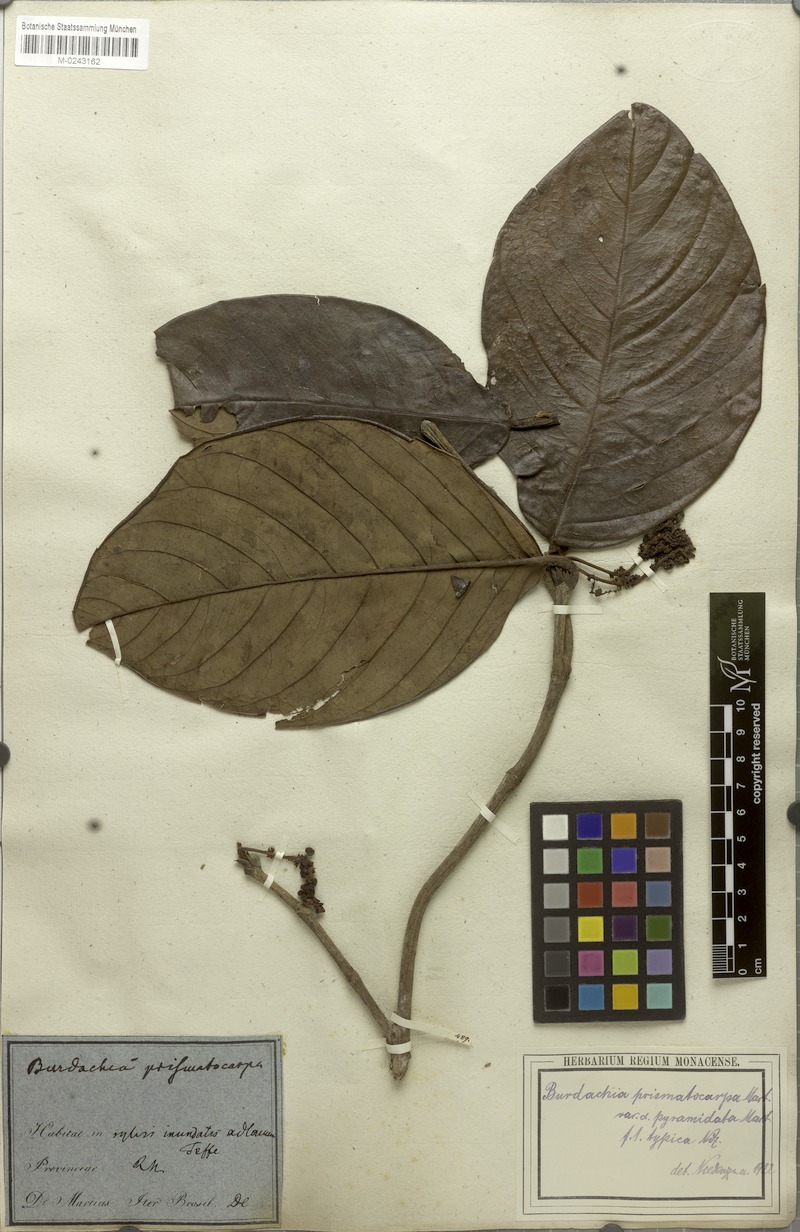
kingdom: Plantae
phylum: Tracheophyta
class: Magnoliopsida
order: Malpighiales
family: Malpighiaceae
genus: Burdachia
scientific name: Burdachia prismatocarpa
